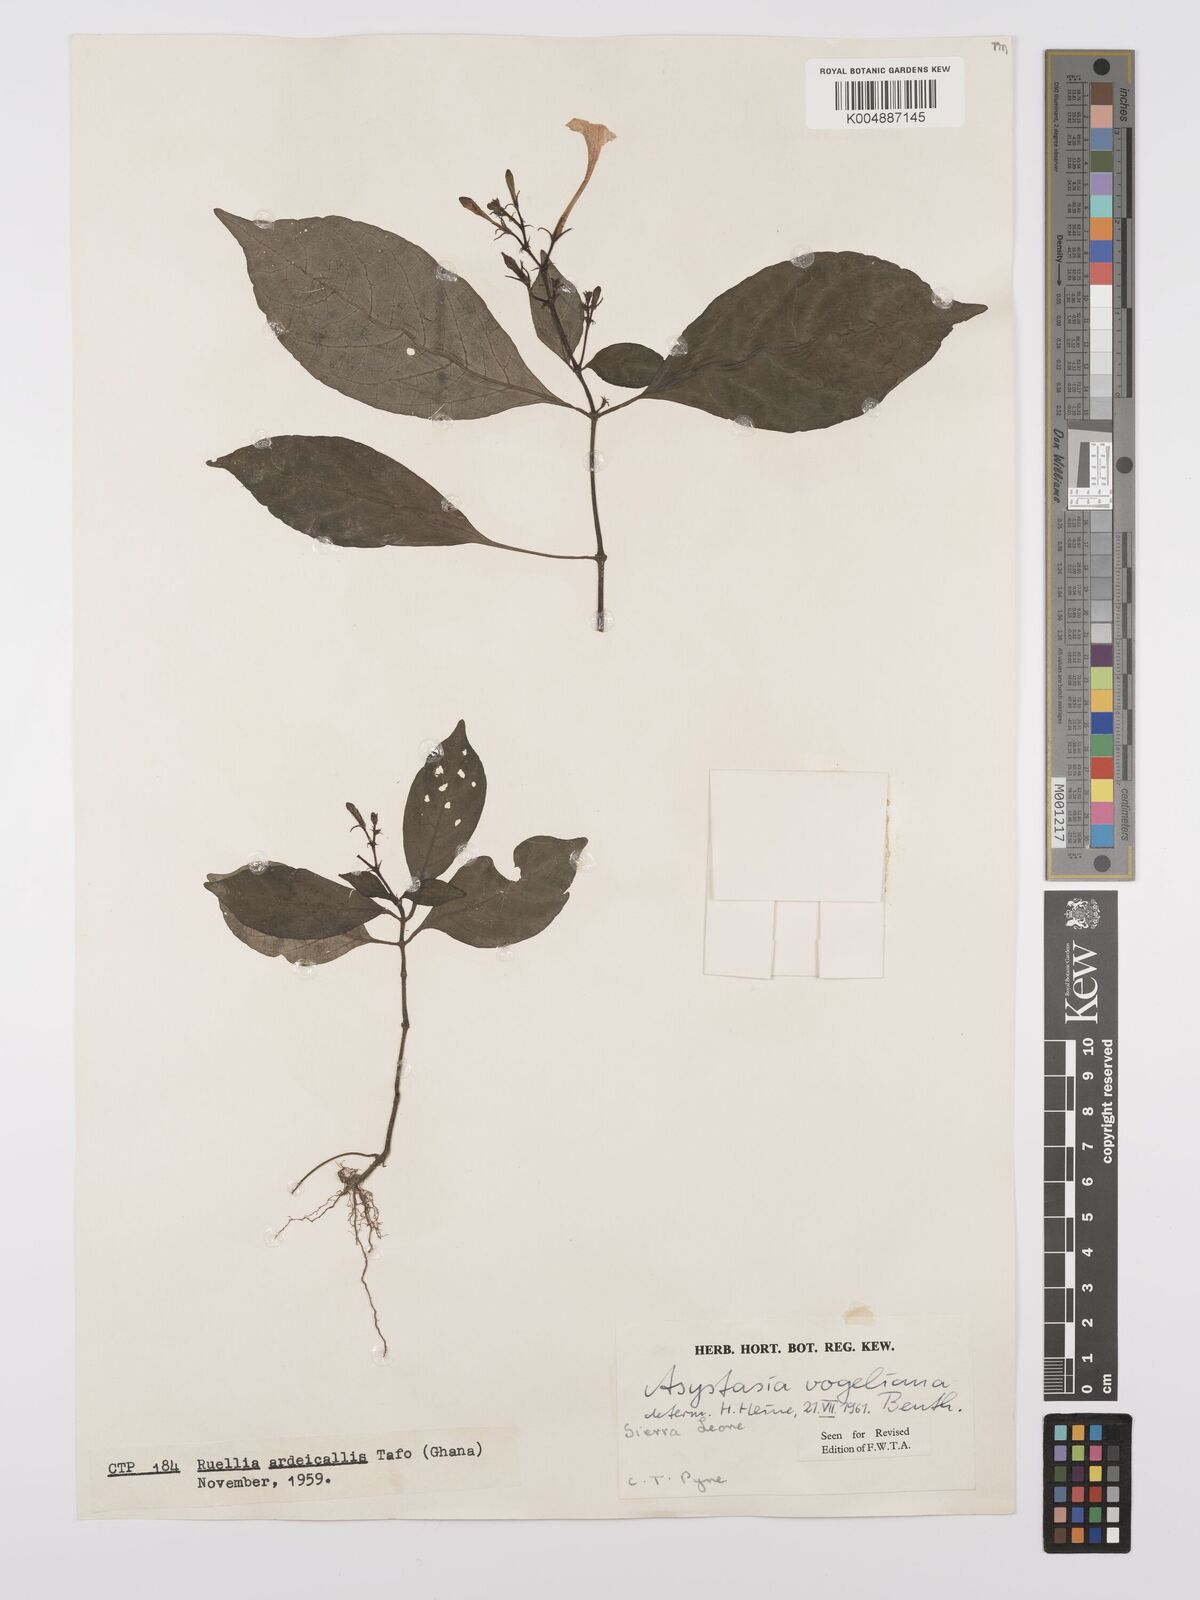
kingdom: Plantae
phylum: Tracheophyta
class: Magnoliopsida
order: Lamiales
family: Acanthaceae
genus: Asystasia
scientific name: Asystasia vogeliana
